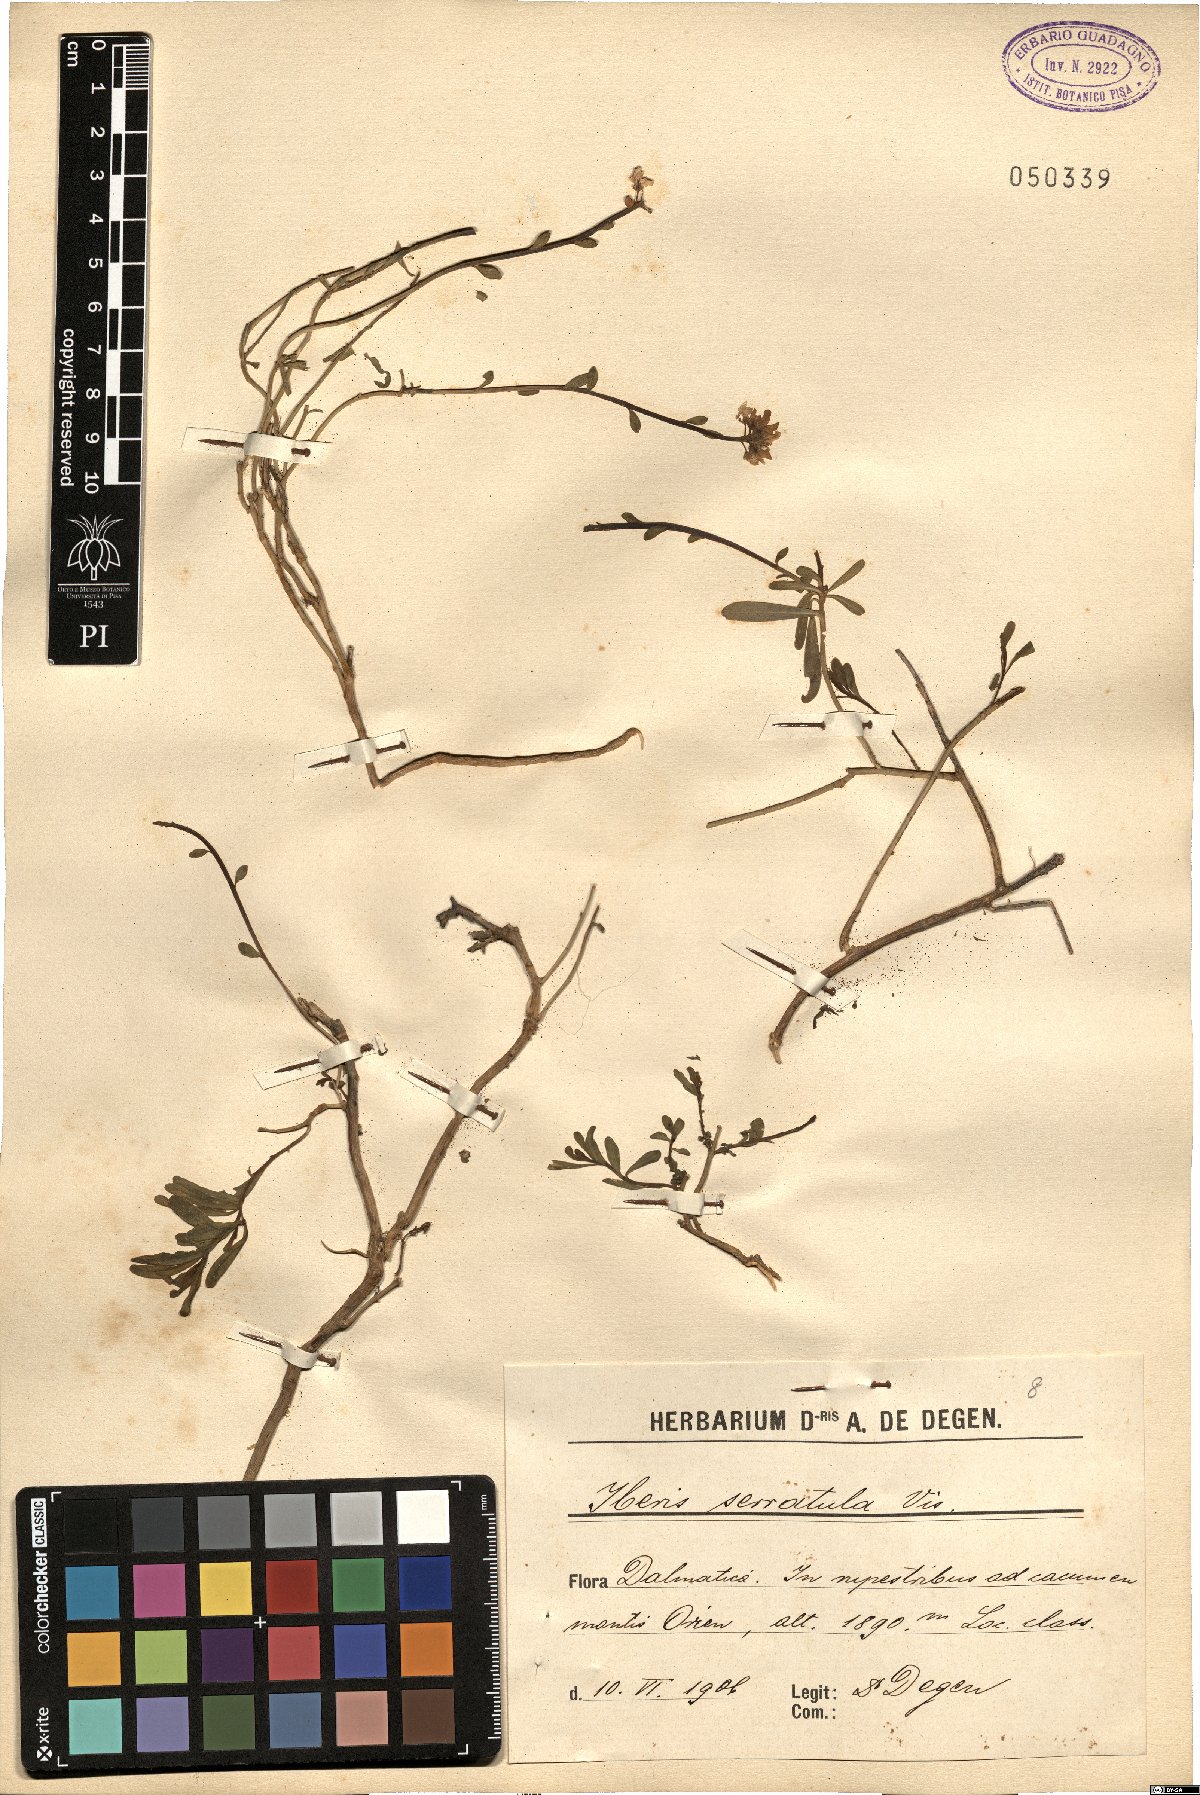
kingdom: Plantae
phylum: Tracheophyta
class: Magnoliopsida
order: Brassicales
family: Brassicaceae
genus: Iberis
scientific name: Iberis sempervirens
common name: Evergreen candytuft
